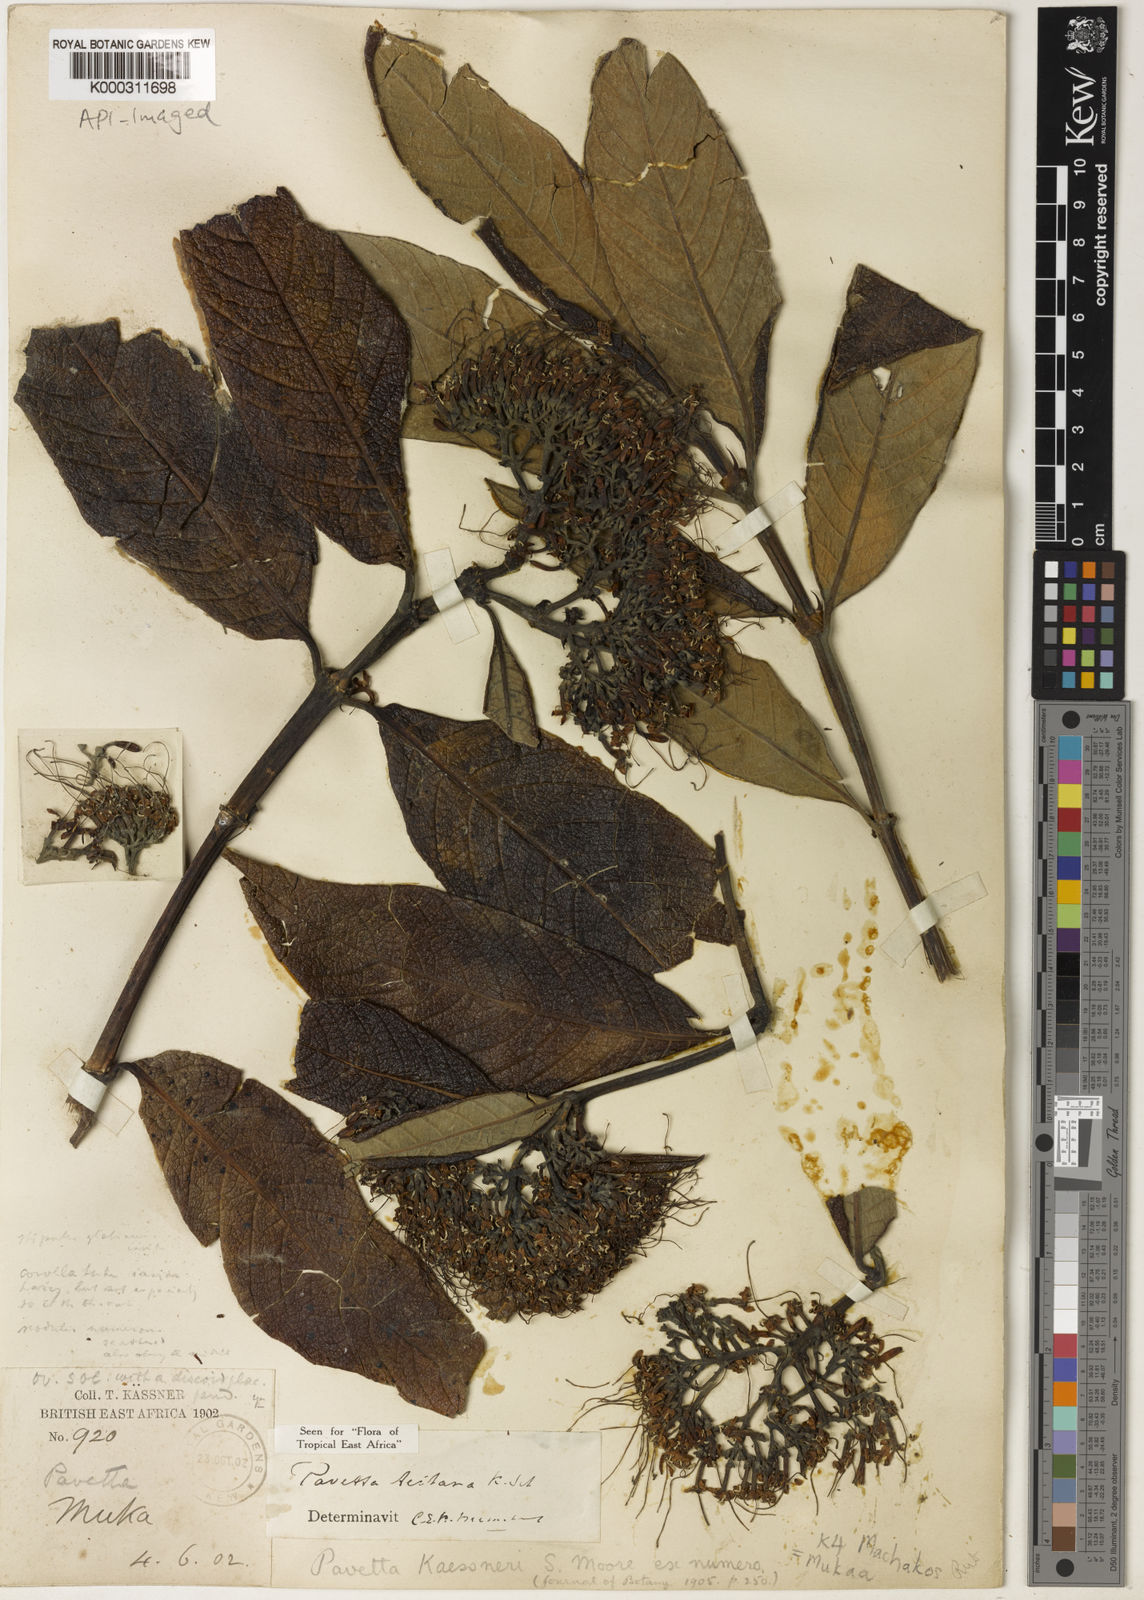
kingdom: Plantae
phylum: Tracheophyta
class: Magnoliopsida
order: Gentianales
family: Rubiaceae
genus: Pavetta
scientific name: Pavetta teitana
